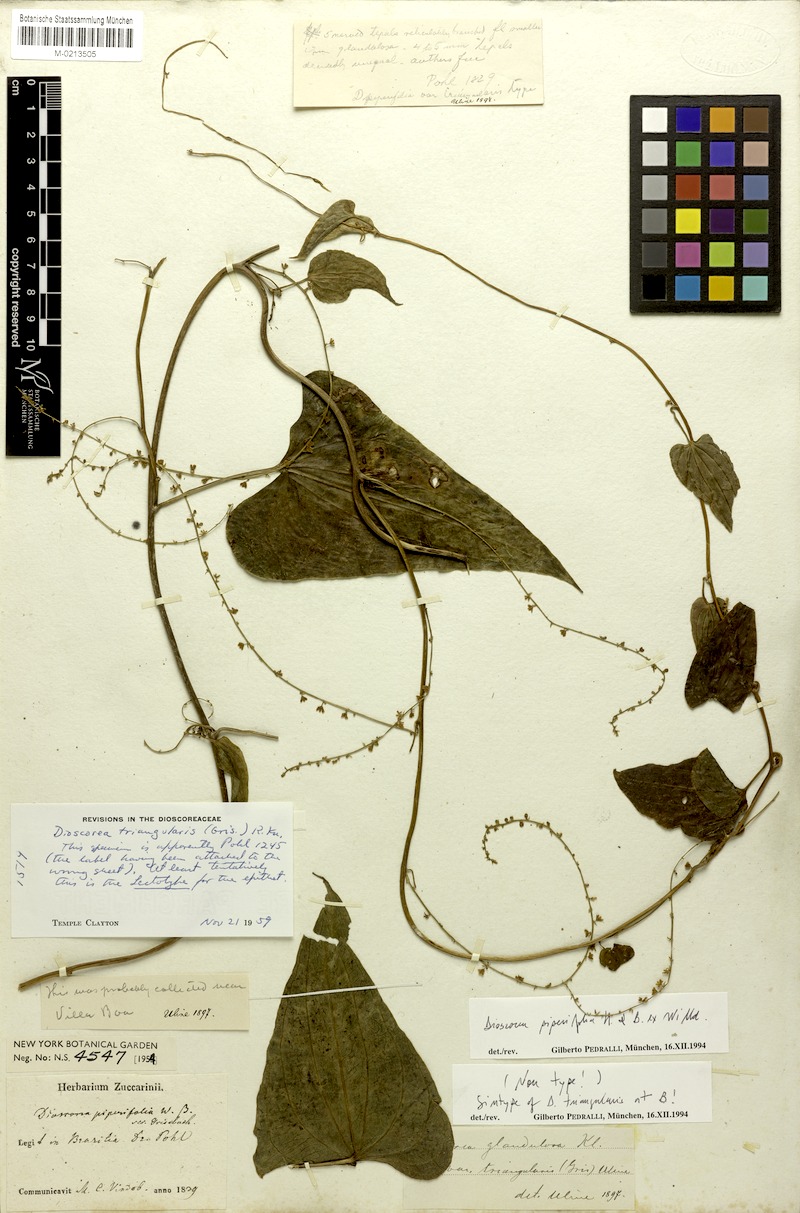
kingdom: Plantae
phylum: Tracheophyta
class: Liliopsida
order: Dioscoreales
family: Dioscoreaceae
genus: Dioscorea
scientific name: Dioscorea glandulosa
